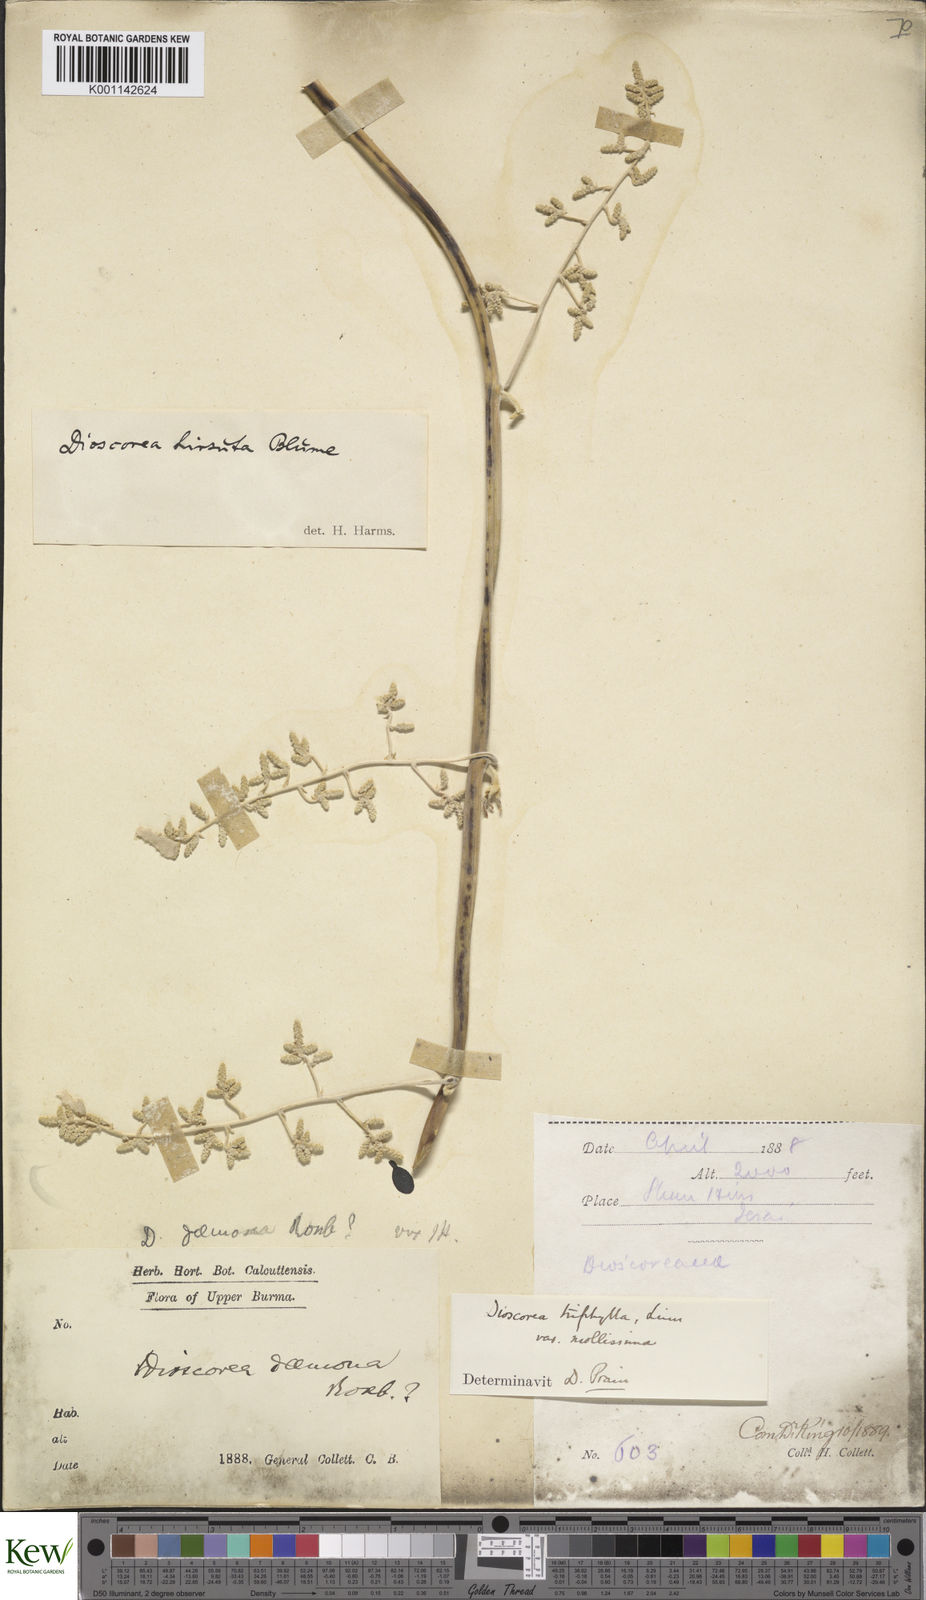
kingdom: Plantae
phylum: Tracheophyta
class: Liliopsida
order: Dioscoreales
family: Dioscoreaceae
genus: Dioscorea
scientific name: Dioscorea pentaphylla
